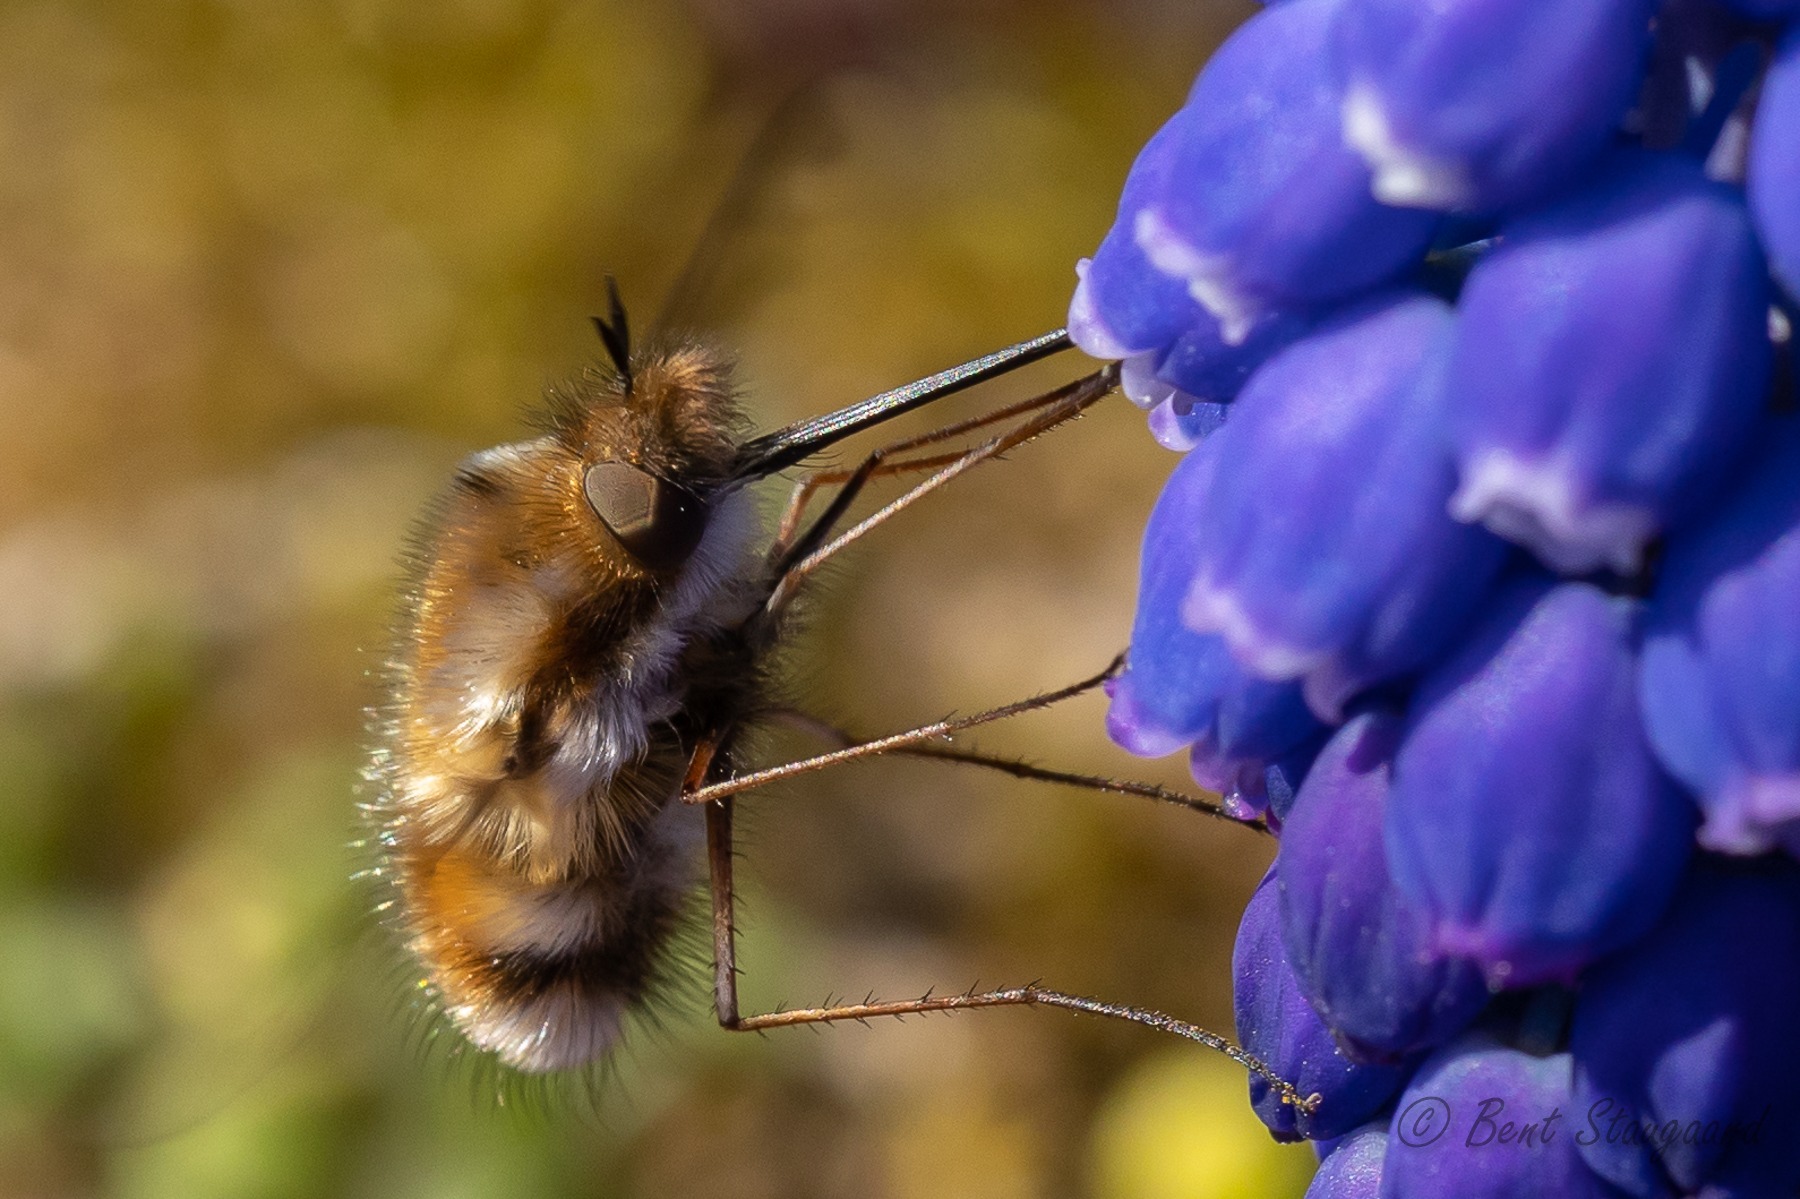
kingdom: Animalia
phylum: Arthropoda
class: Insecta
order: Diptera
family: Bombyliidae
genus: Bombylius
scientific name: Bombylius major
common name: Stor humleflue
